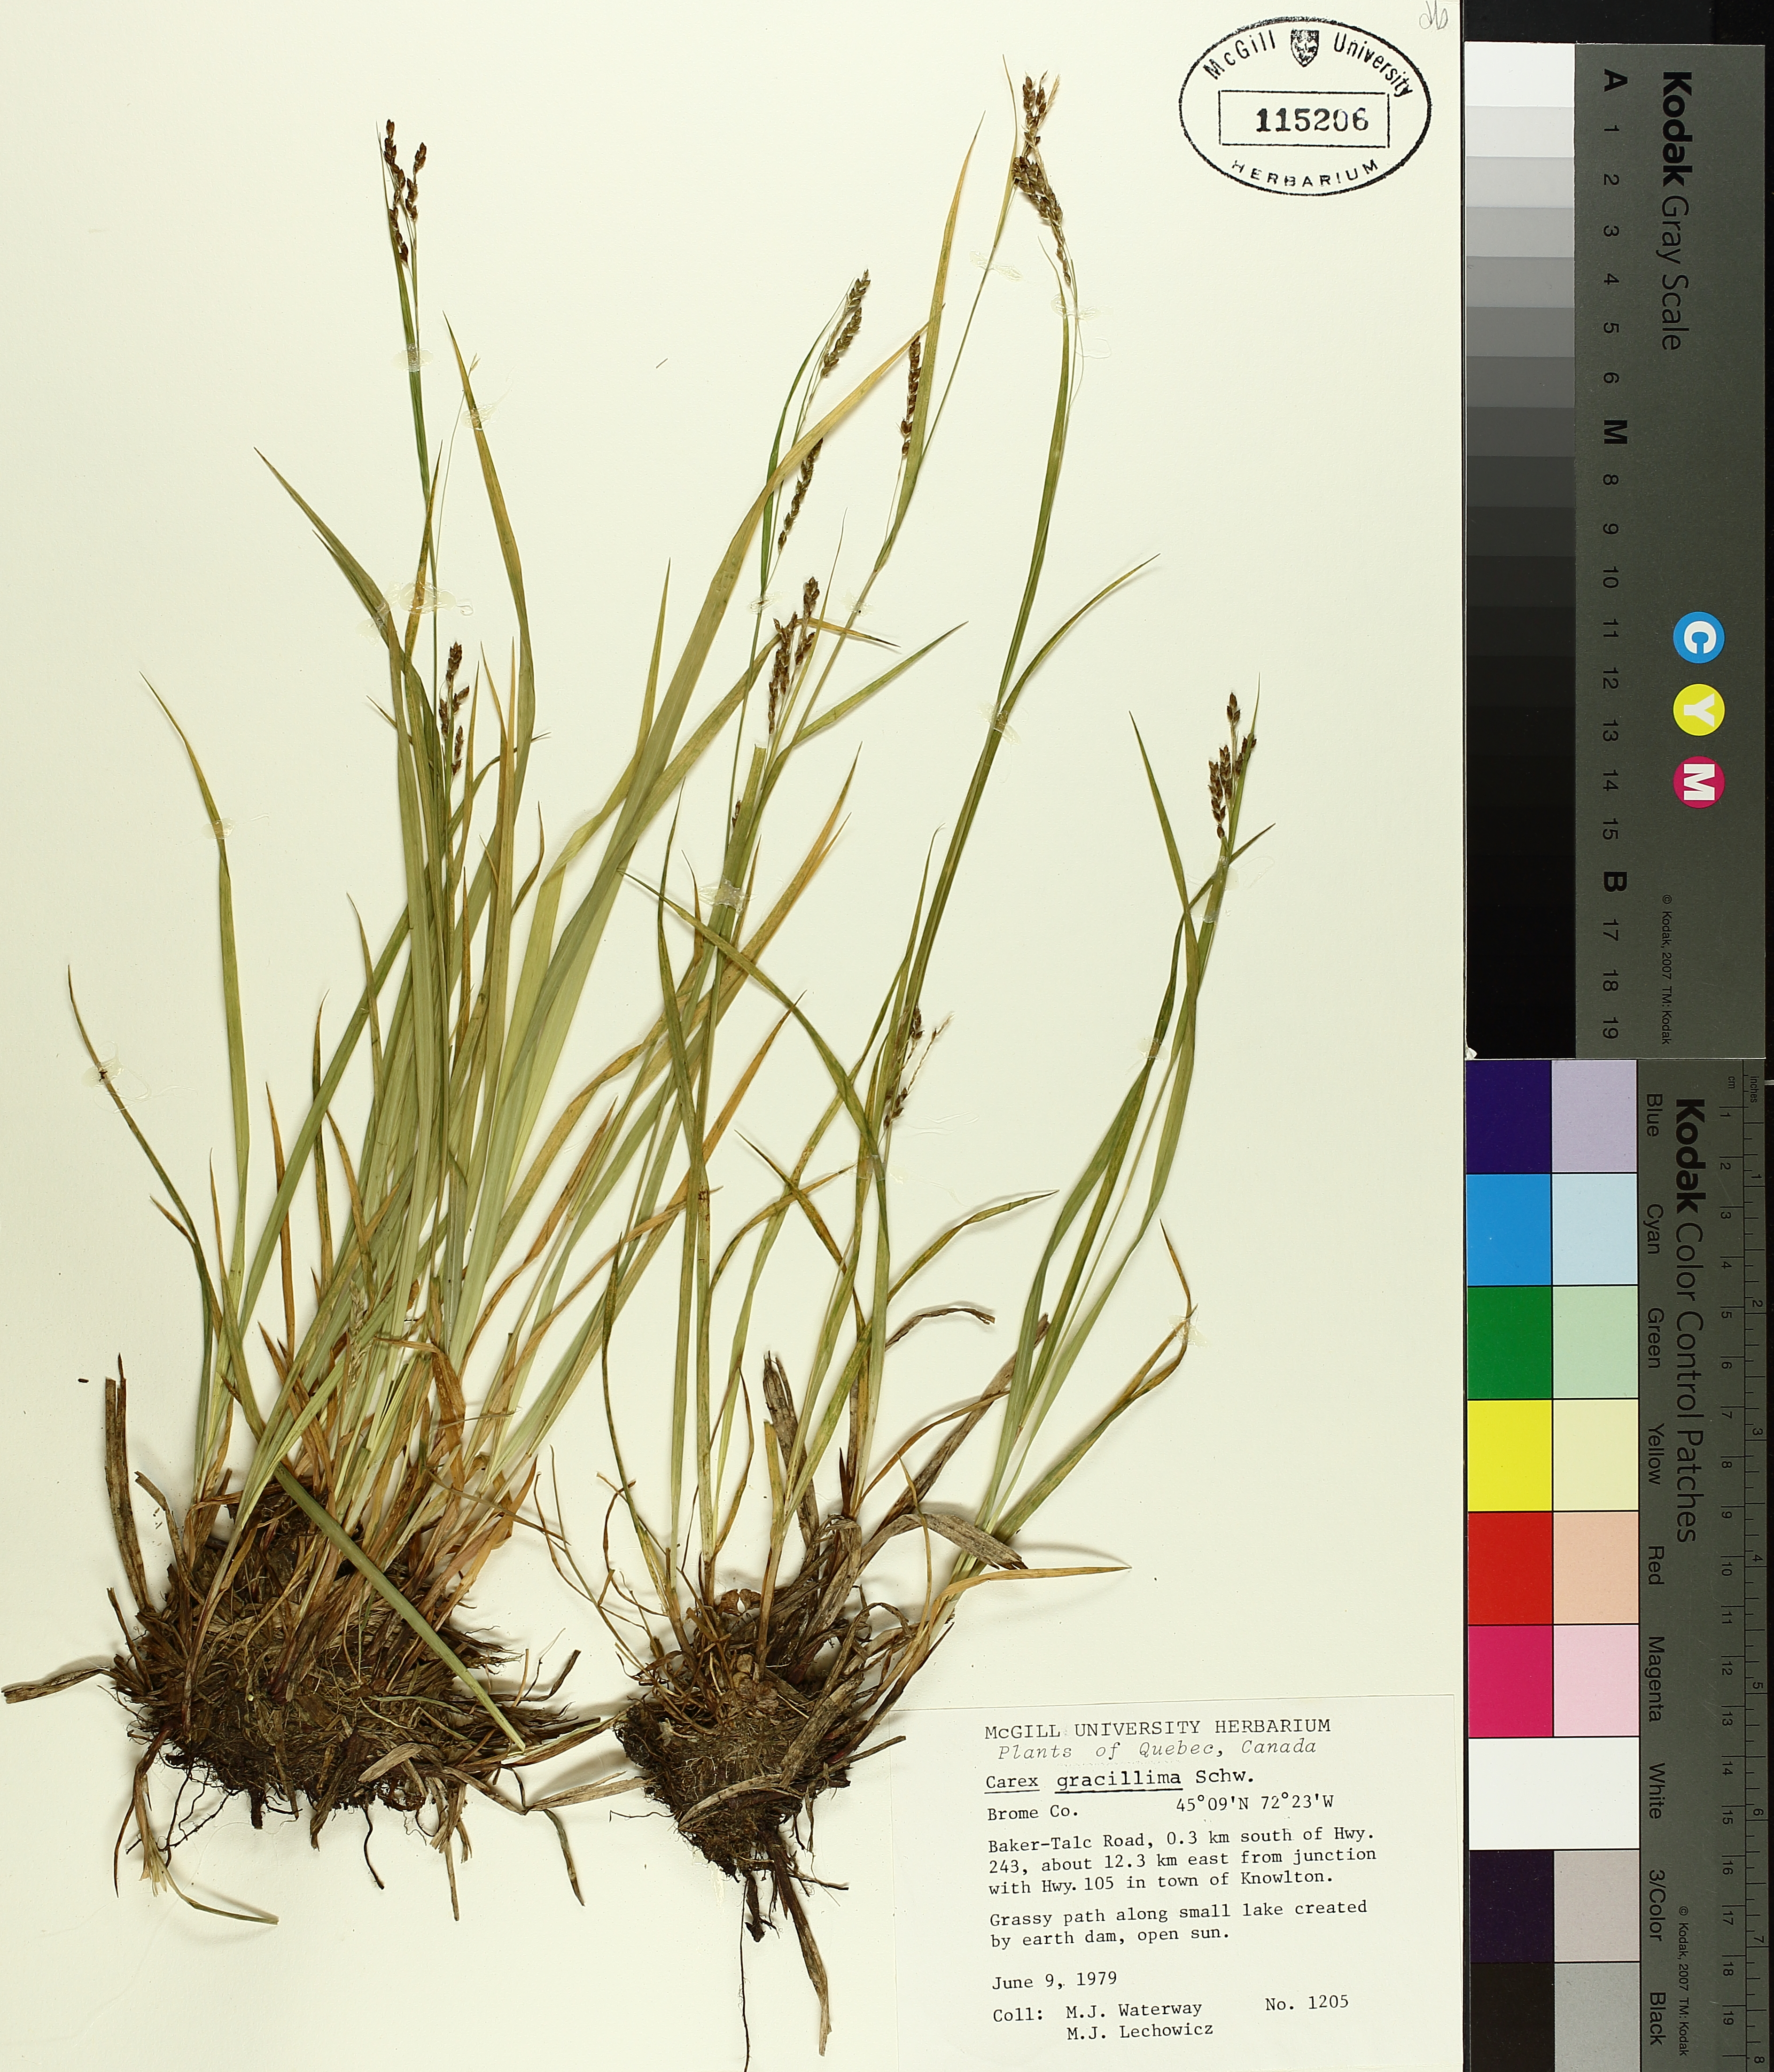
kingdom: Plantae
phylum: Tracheophyta
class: Liliopsida
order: Poales
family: Cyperaceae
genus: Carex
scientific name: Carex gracillima
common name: Graceful sedge
